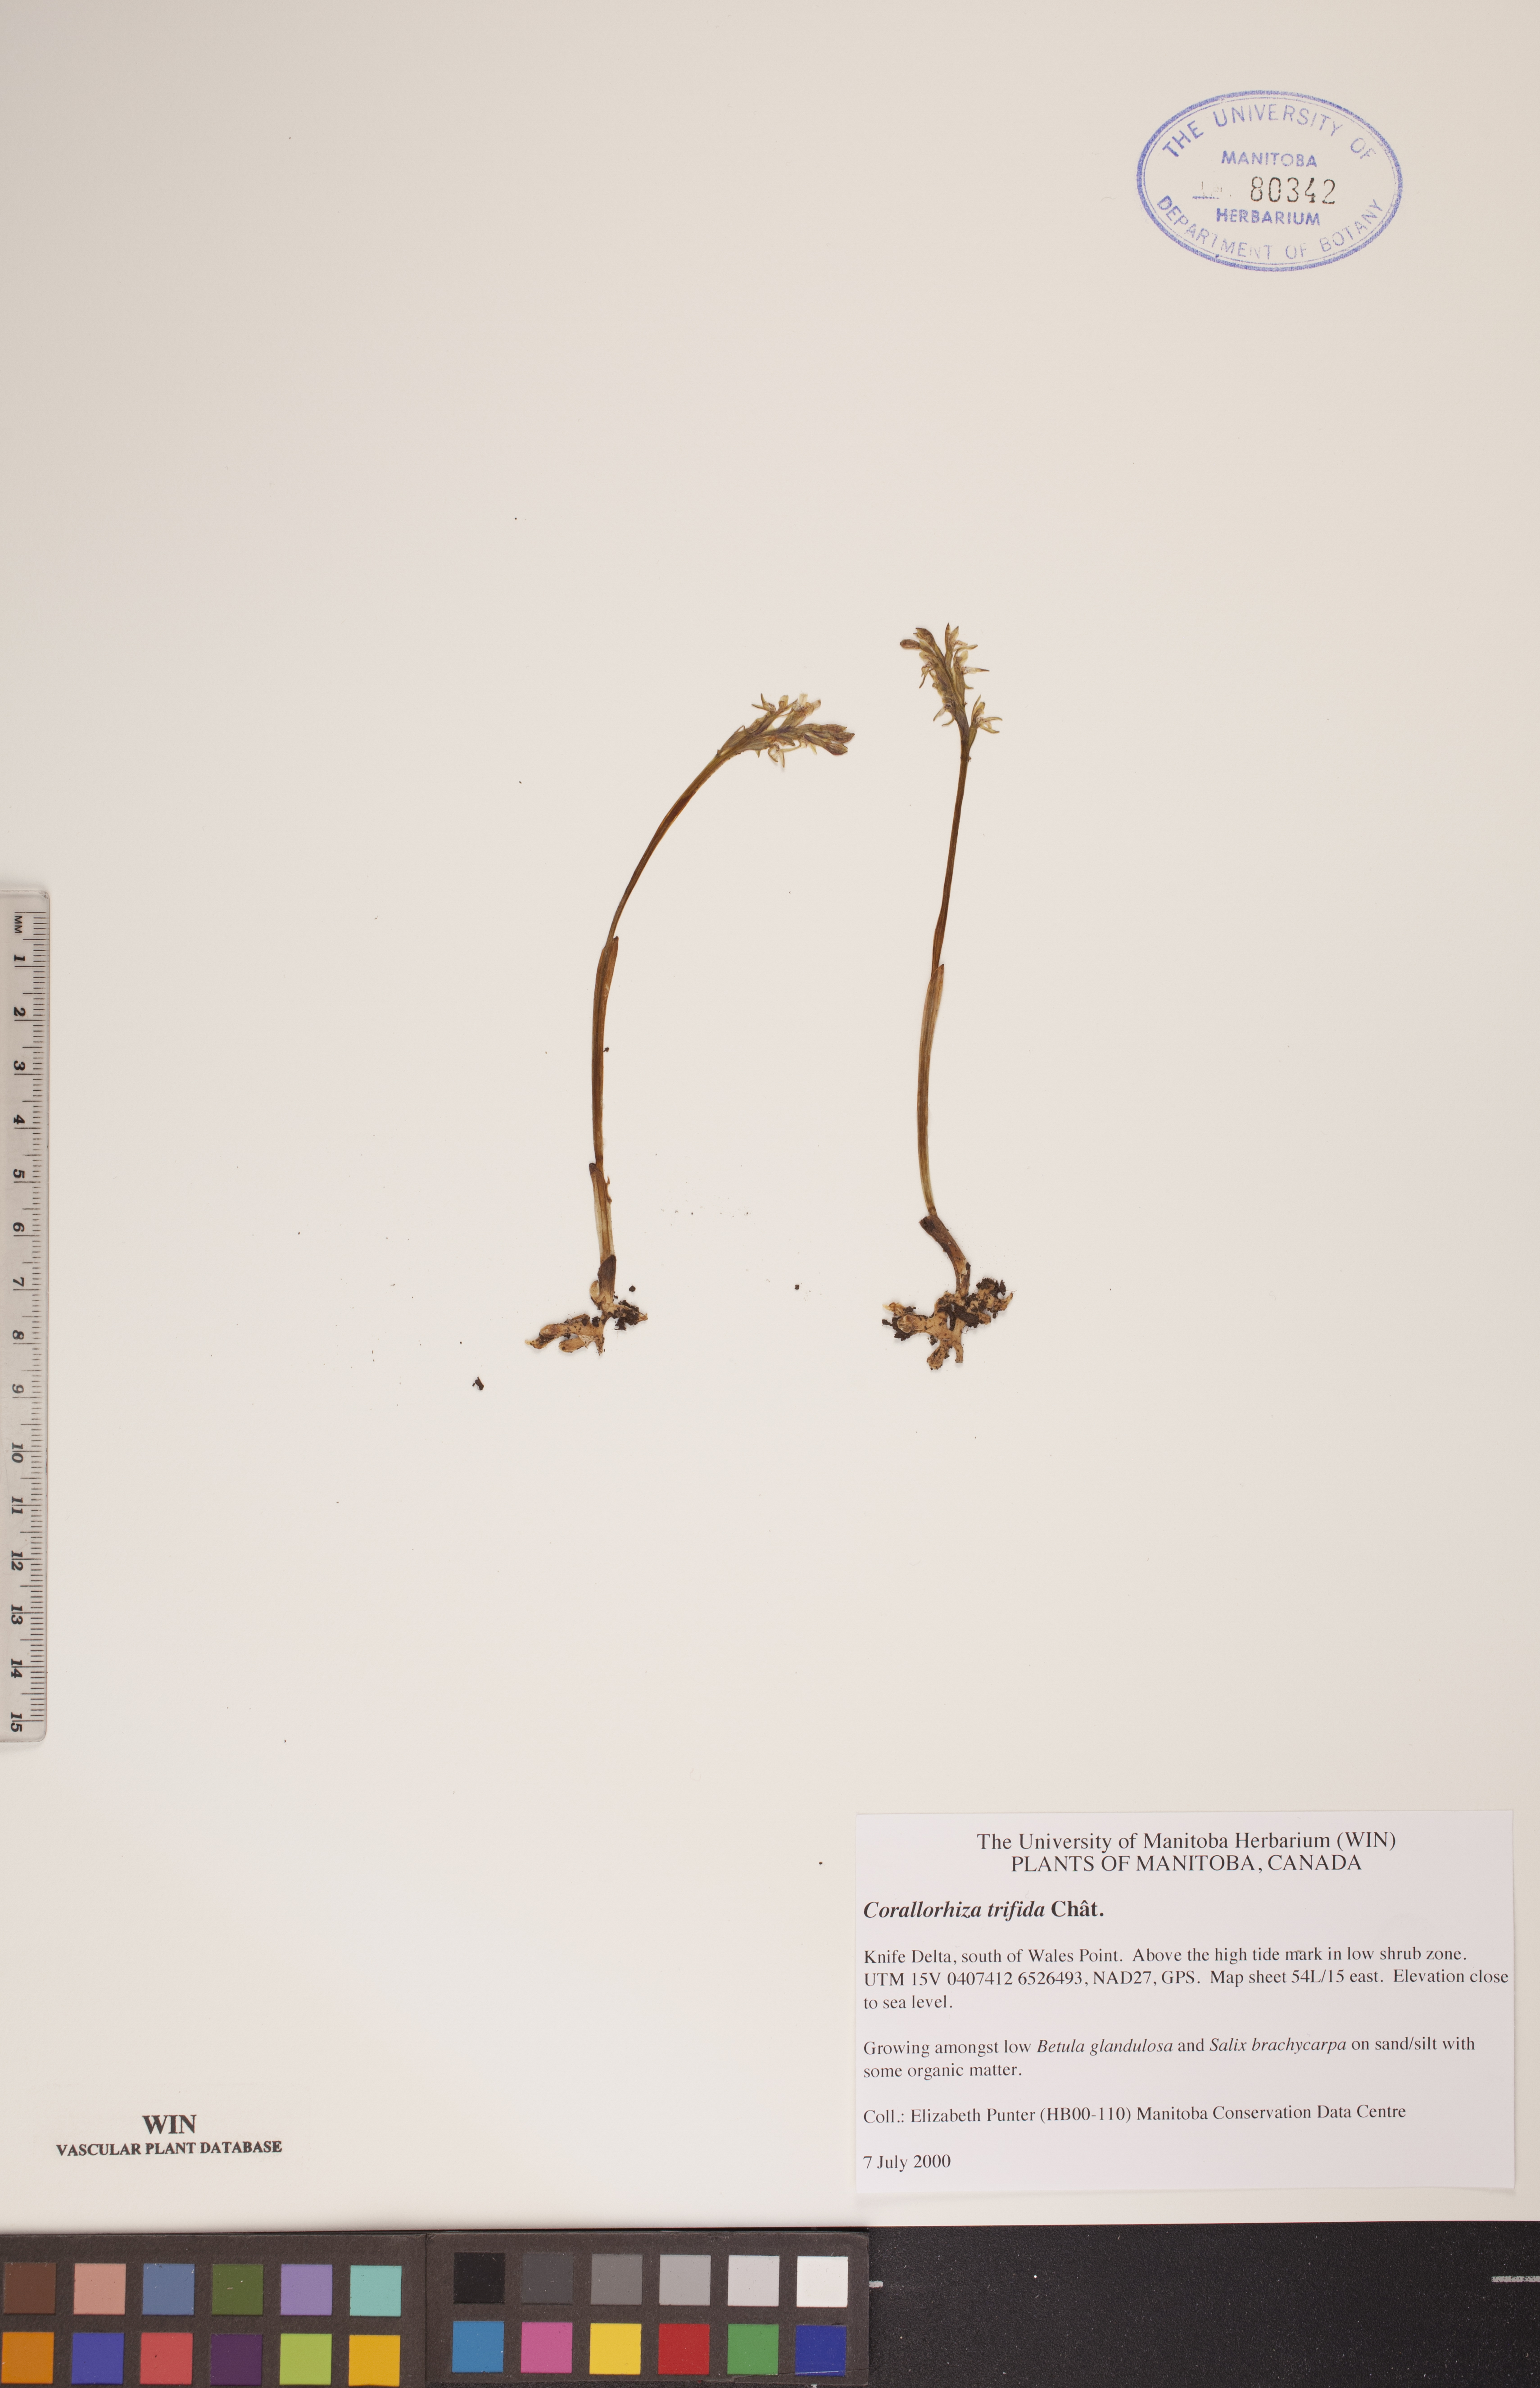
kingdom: Plantae
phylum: Tracheophyta
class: Liliopsida
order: Asparagales
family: Orchidaceae
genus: Corallorhiza
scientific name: Corallorhiza trifida
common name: Yellow coralroot
